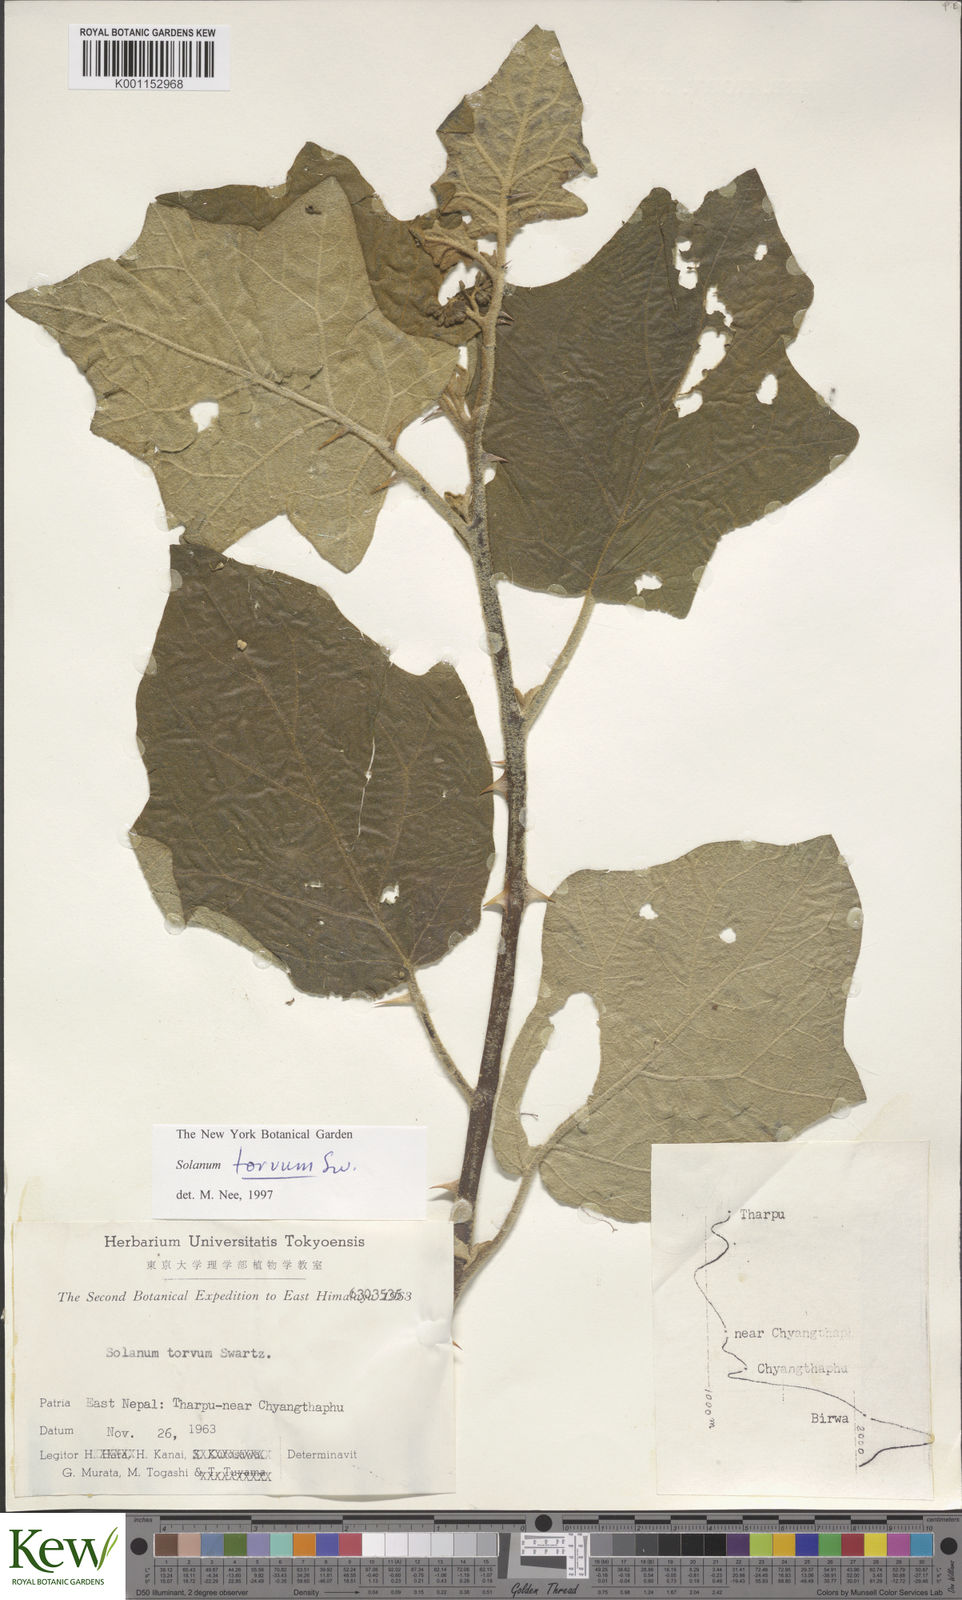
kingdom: Plantae
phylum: Tracheophyta
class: Magnoliopsida
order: Solanales
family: Solanaceae
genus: Solanum
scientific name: Solanum torvum
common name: Turkey berry
